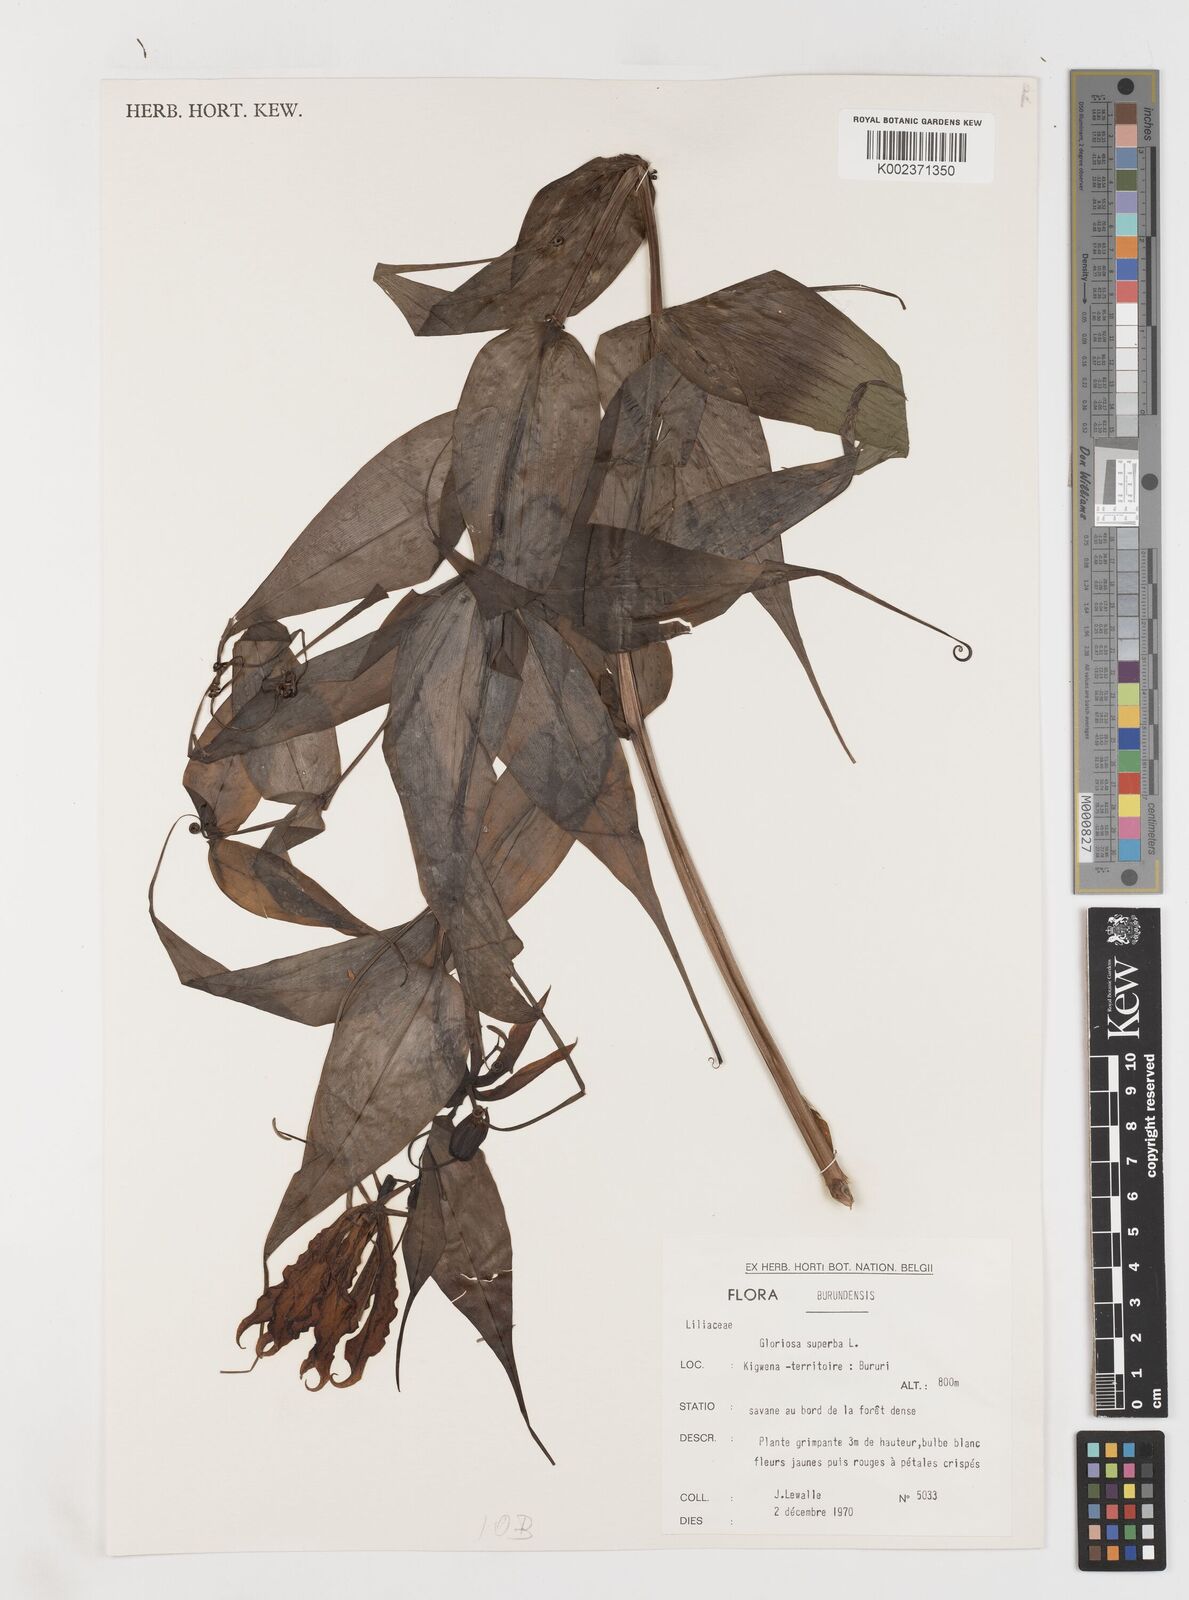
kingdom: Plantae
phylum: Tracheophyta
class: Liliopsida
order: Liliales
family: Colchicaceae
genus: Gloriosa
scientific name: Gloriosa superba
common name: Flame lily
